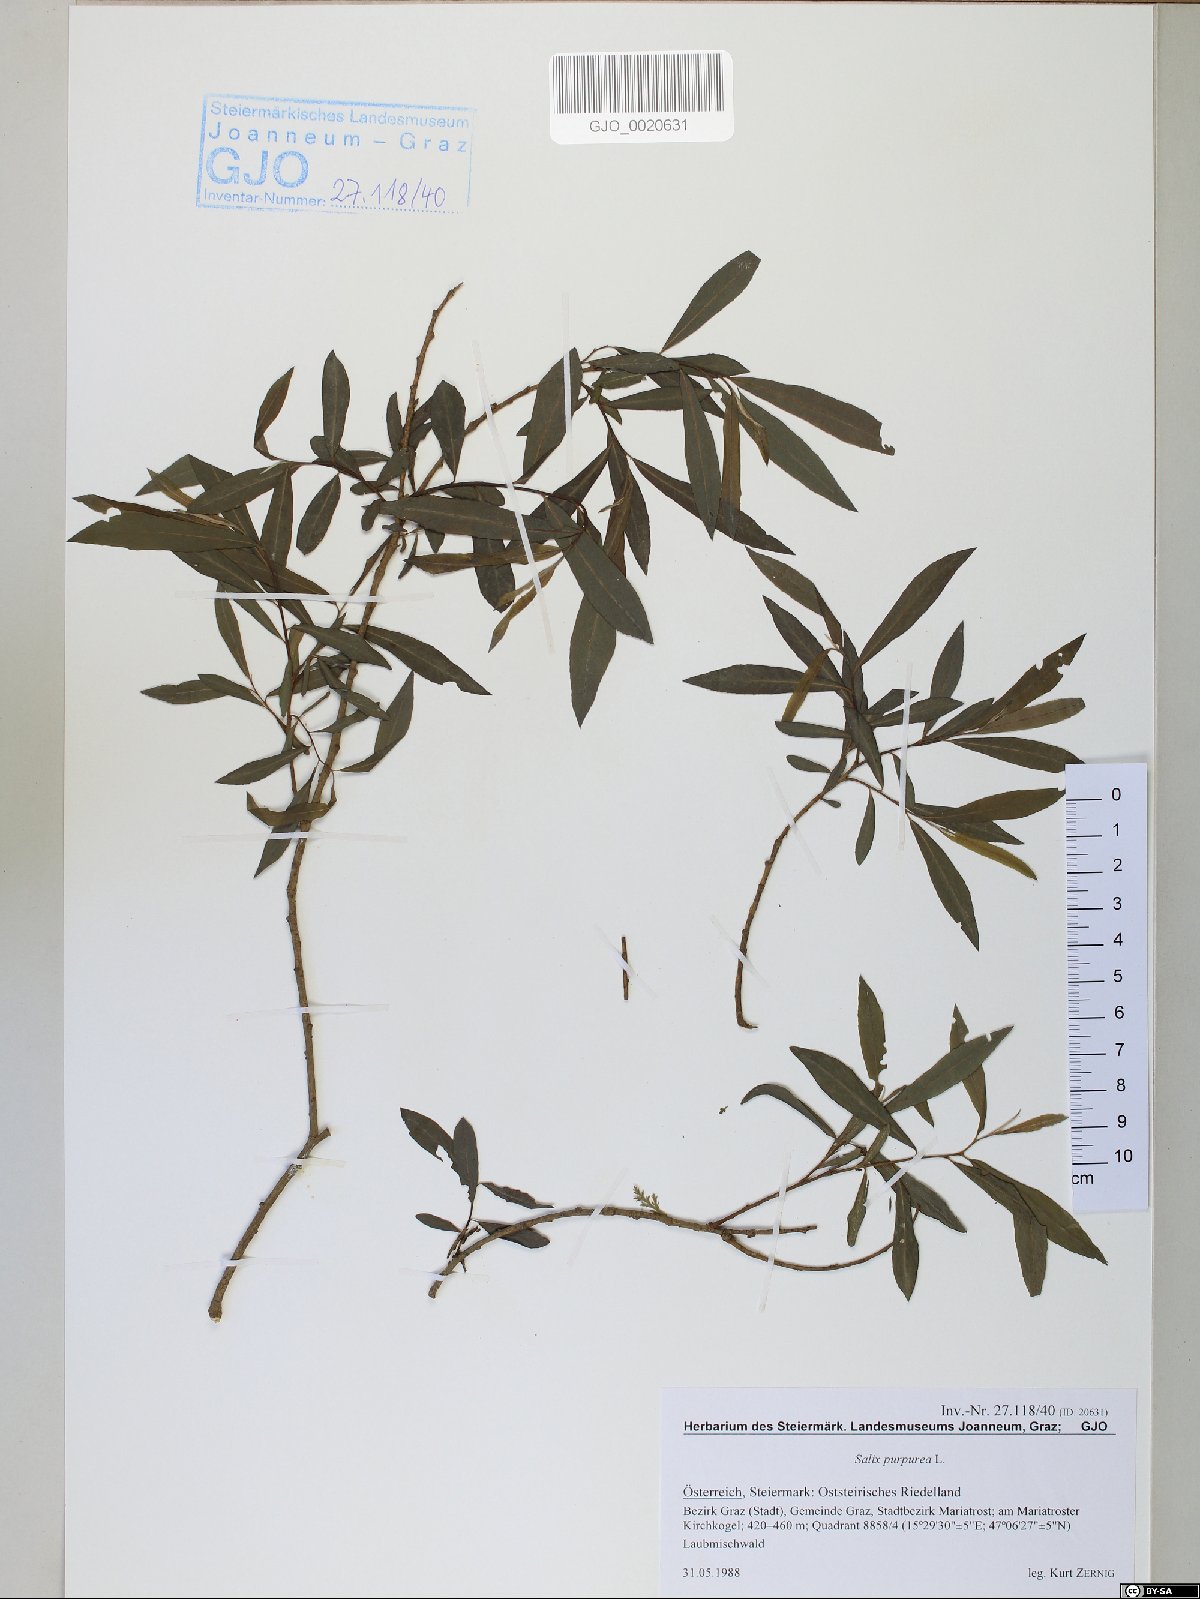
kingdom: Plantae
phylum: Tracheophyta
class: Magnoliopsida
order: Malpighiales
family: Salicaceae
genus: Salix
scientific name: Salix purpurea
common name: Purple willow
